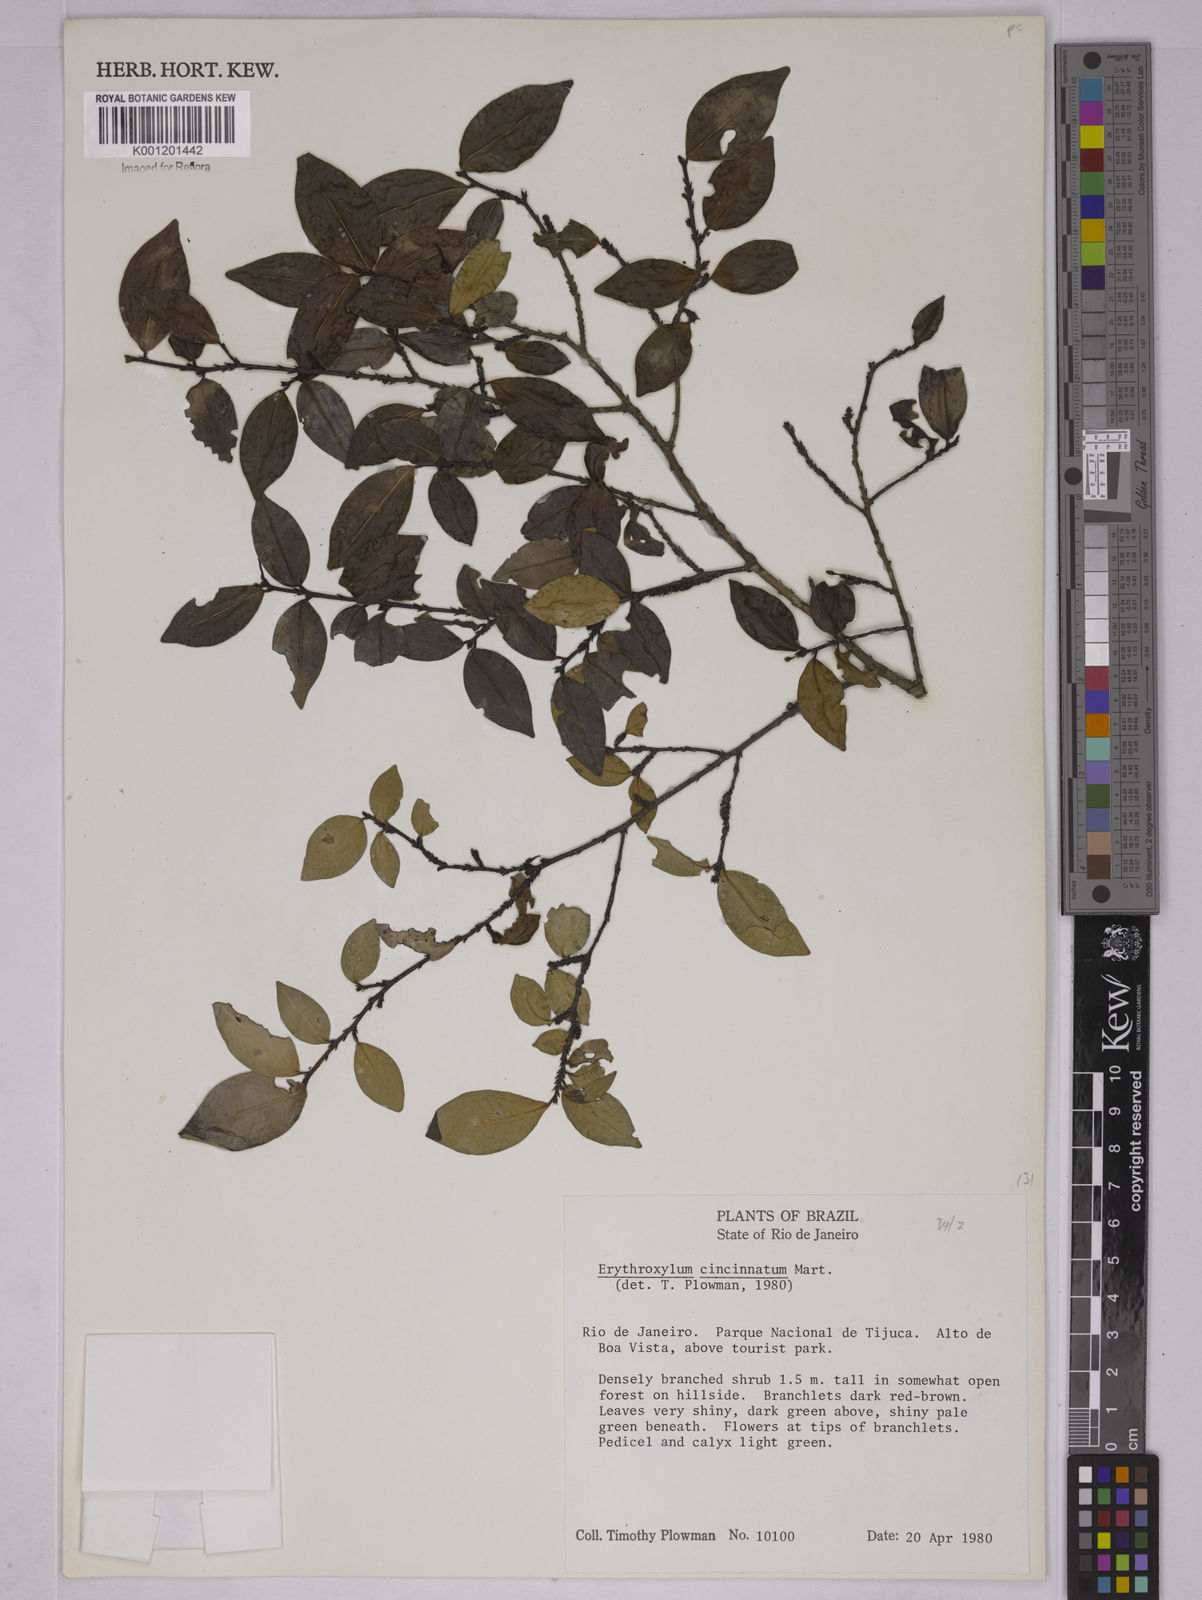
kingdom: Plantae
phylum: Tracheophyta
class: Magnoliopsida
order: Malpighiales
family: Erythroxylaceae
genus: Erythroxylum
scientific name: Erythroxylum cincinnatum
